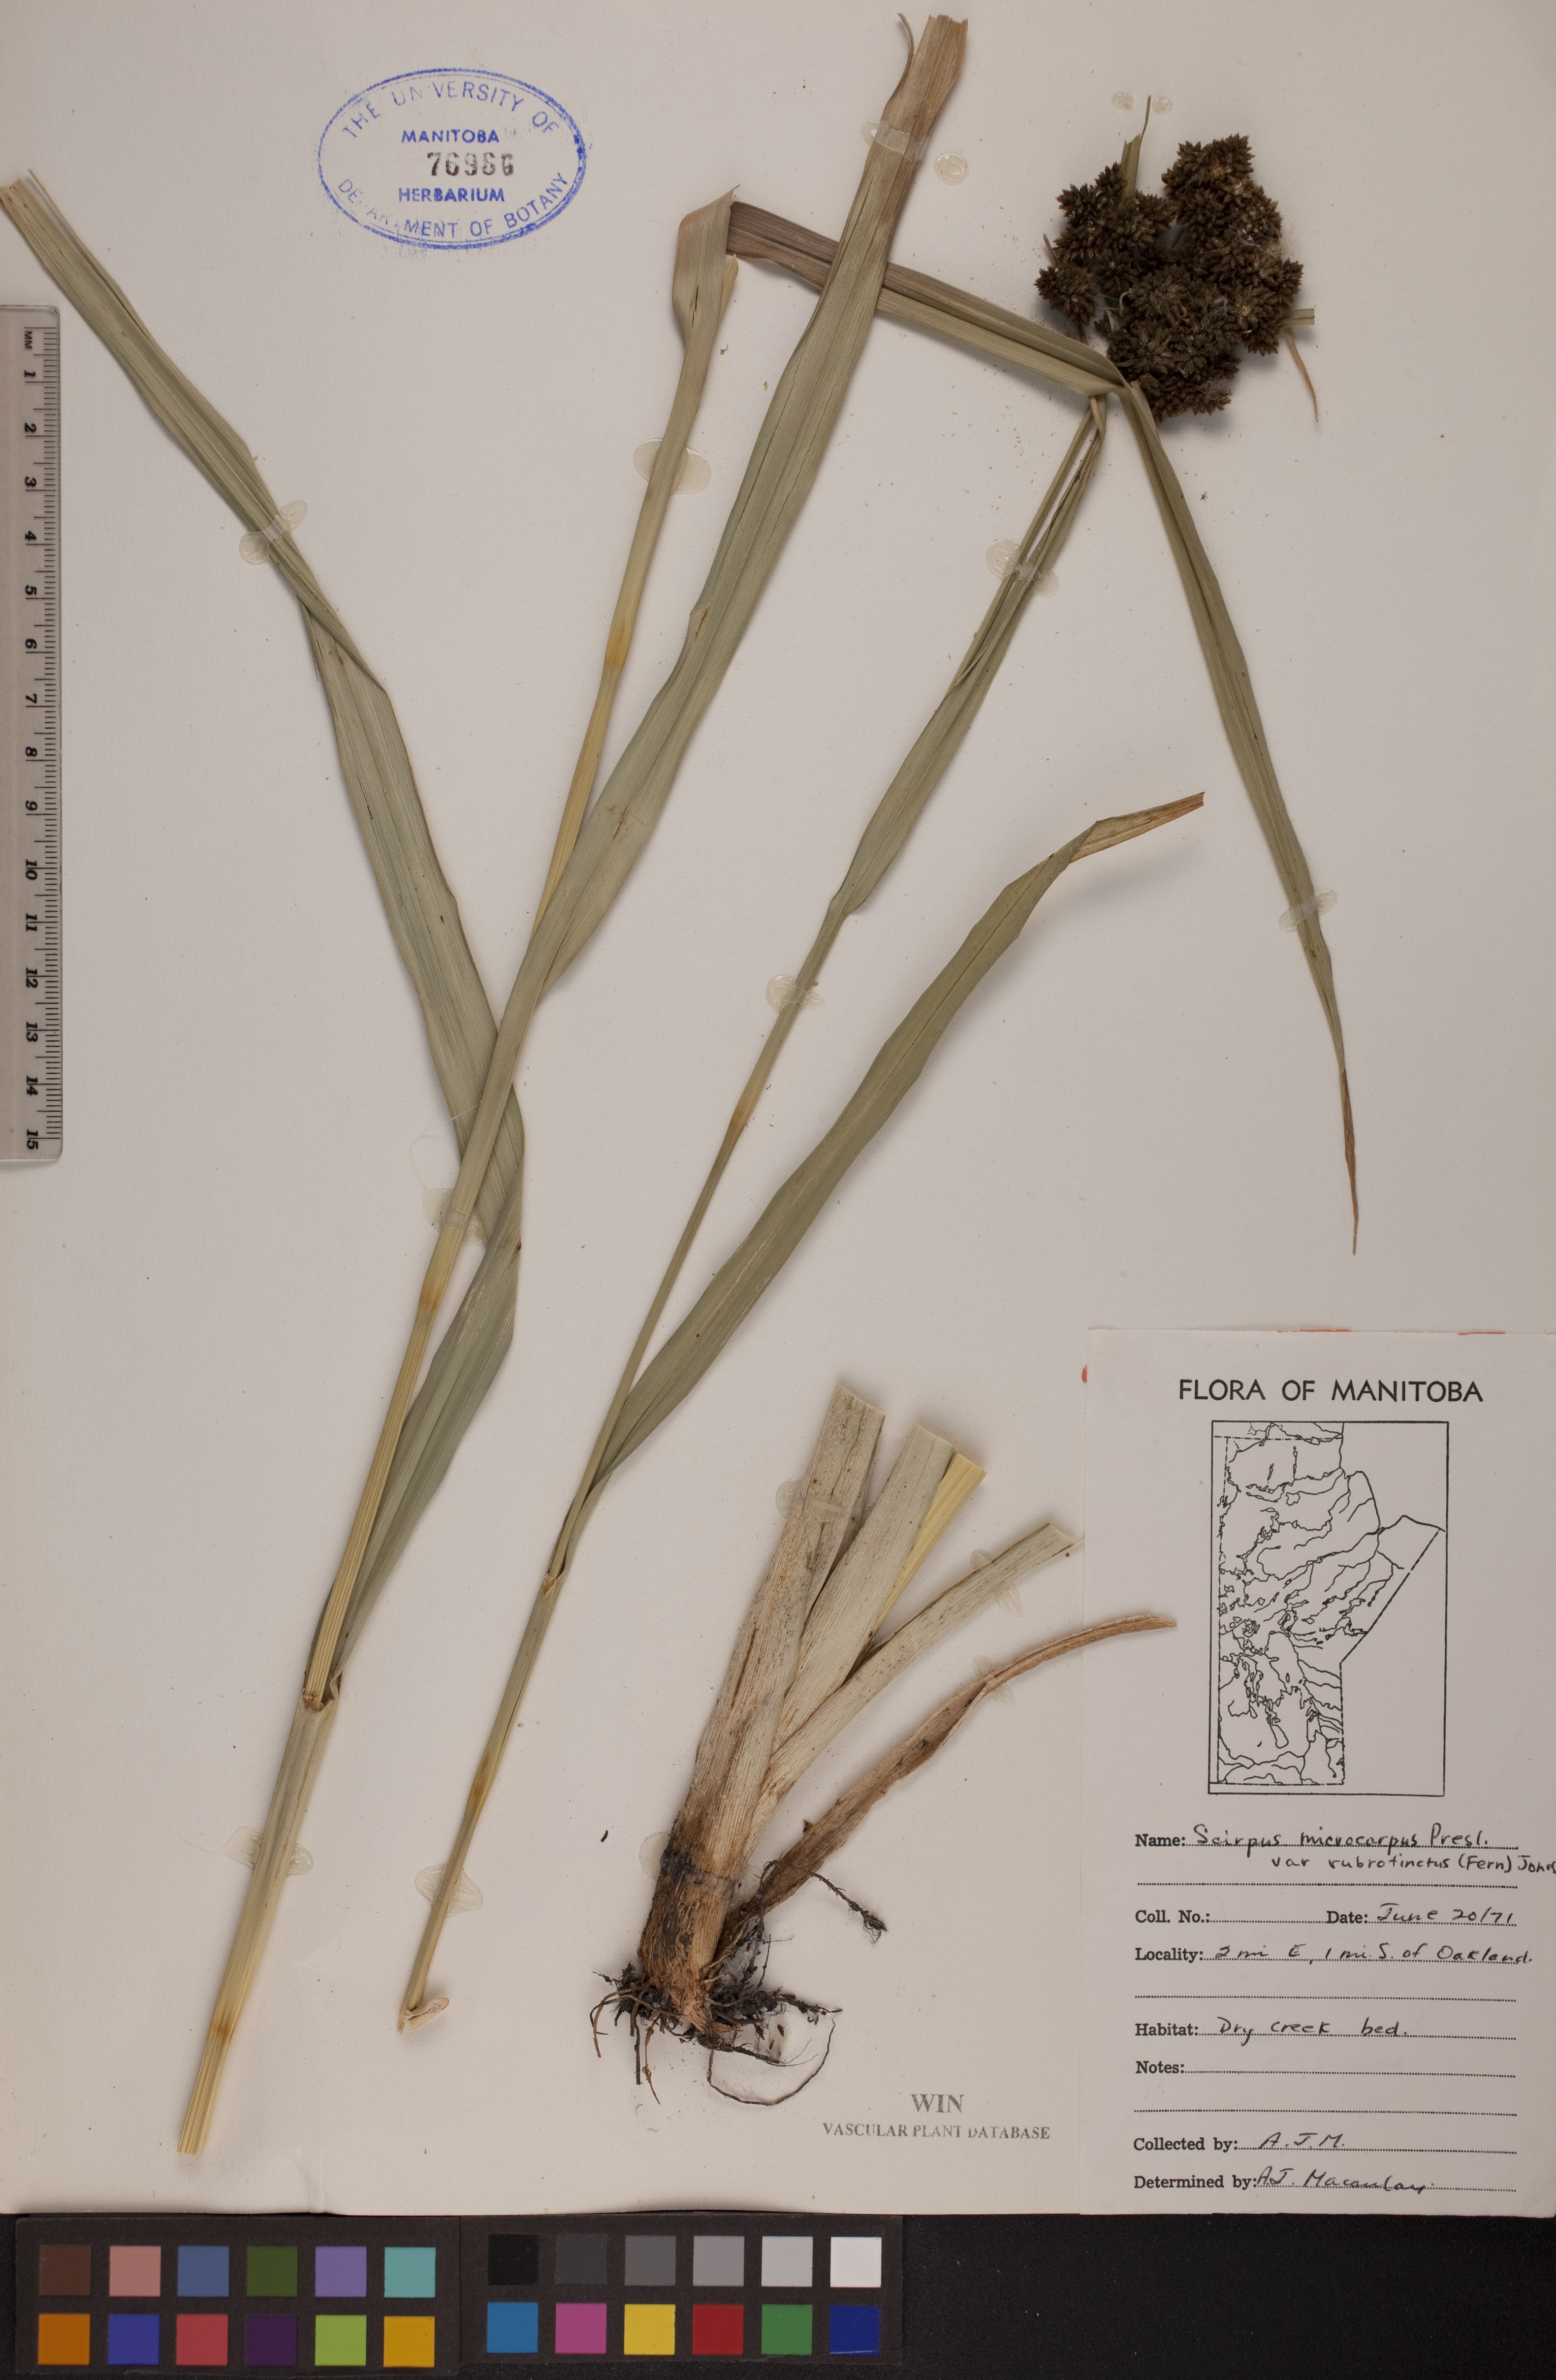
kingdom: Plantae
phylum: Tracheophyta
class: Liliopsida
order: Poales
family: Cyperaceae
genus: Scirpus
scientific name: Scirpus microcarpus
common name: Panicled bulrush
